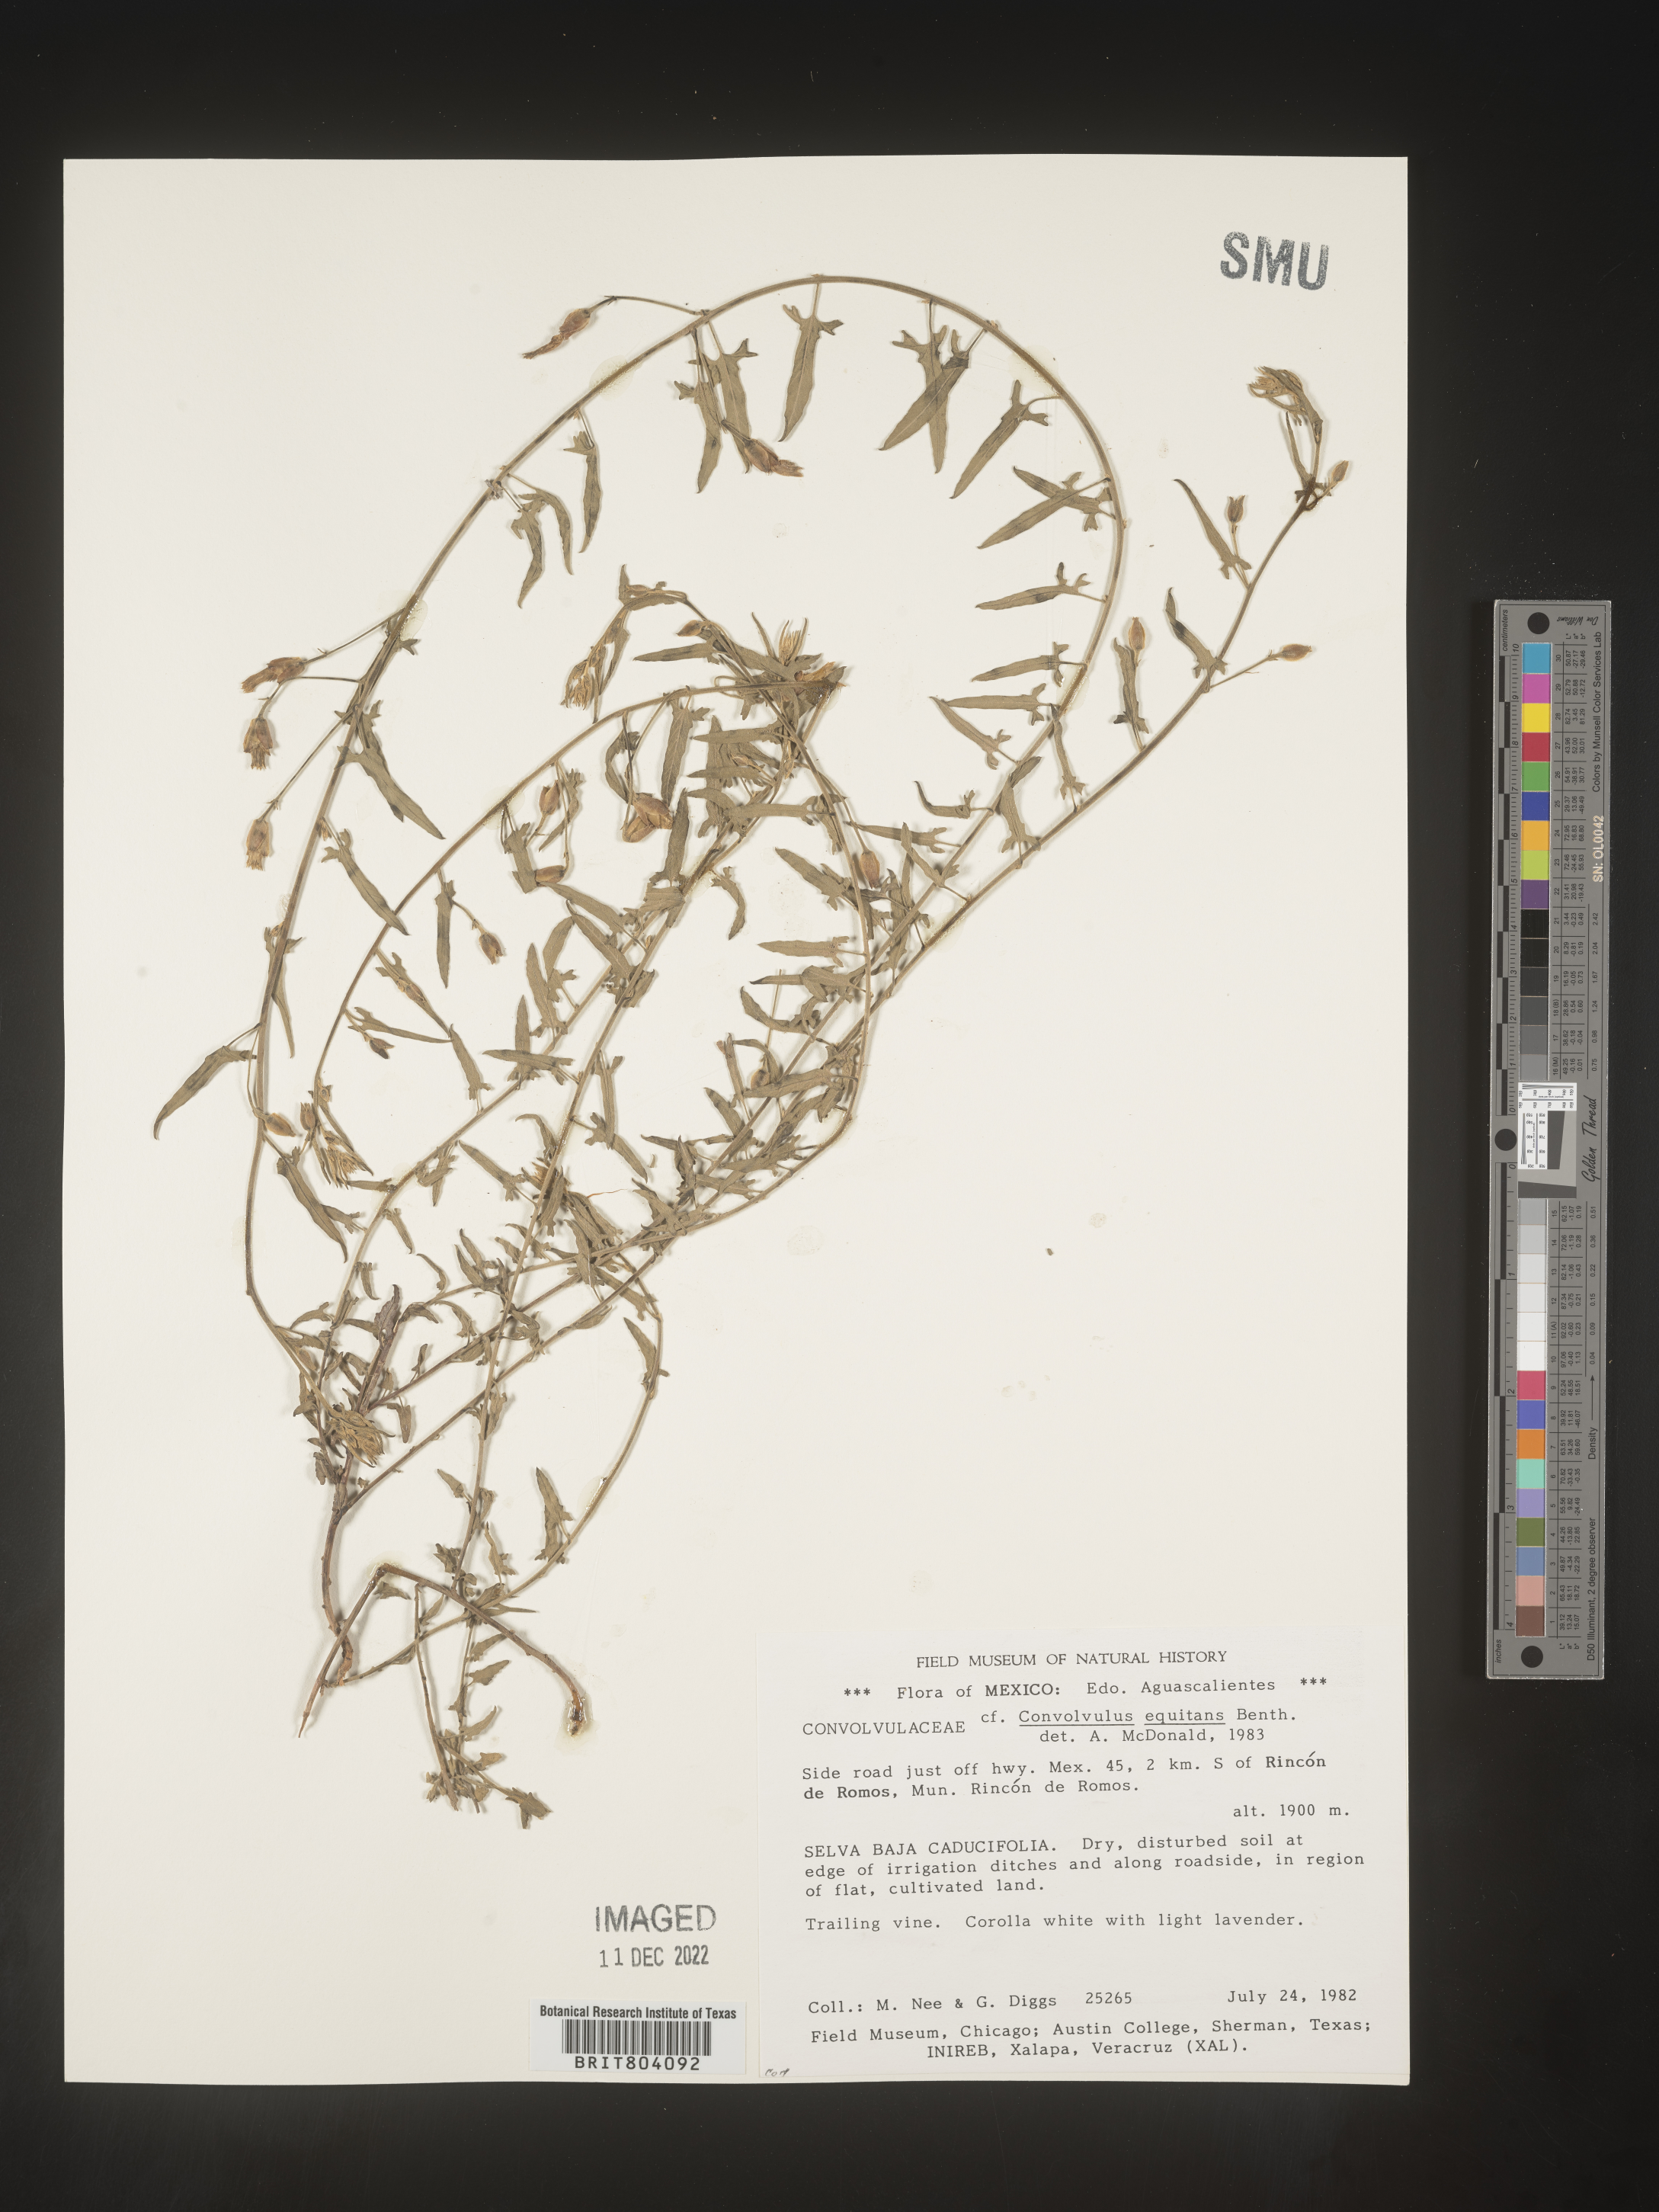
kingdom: Plantae
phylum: Tracheophyta
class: Magnoliopsida
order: Solanales
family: Convolvulaceae
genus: Convolvulus
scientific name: Convolvulus
